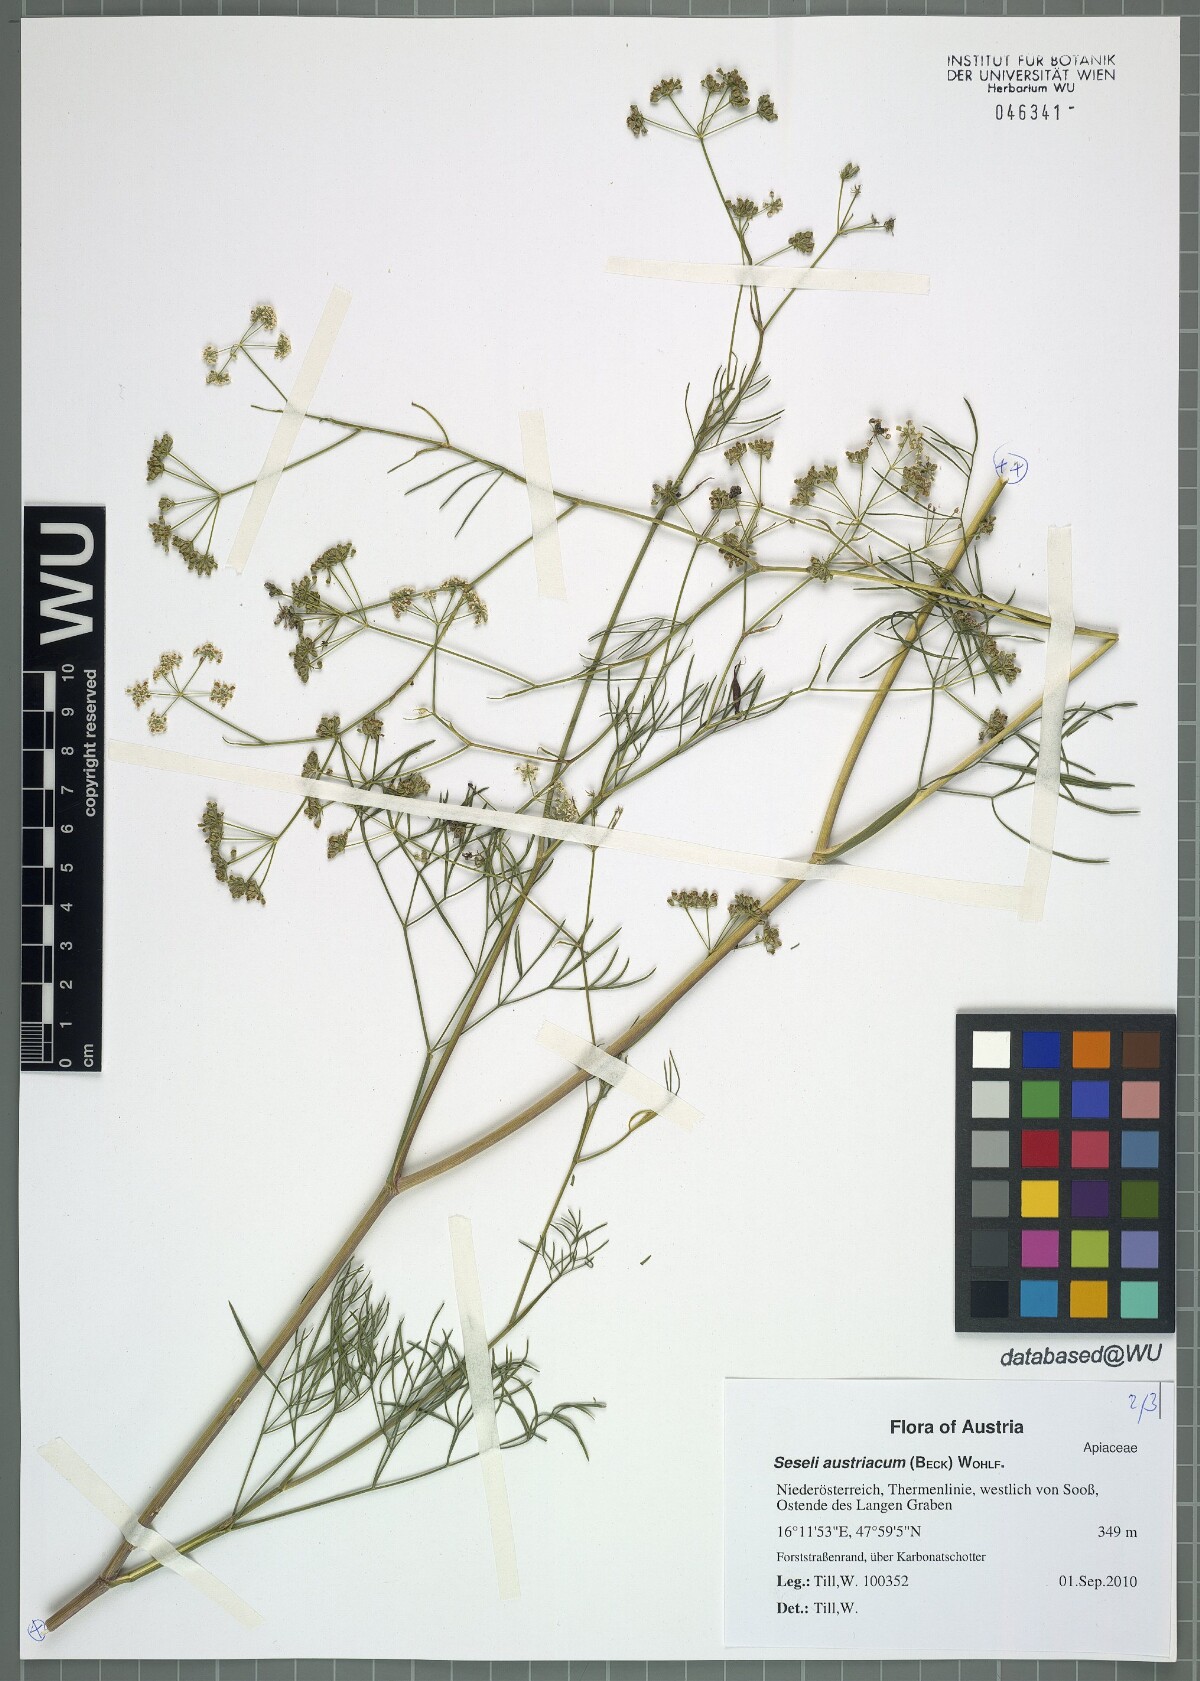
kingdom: Plantae
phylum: Tracheophyta
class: Magnoliopsida
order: Apiales
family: Apiaceae
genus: Seseli
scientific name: Seseli austriacum
